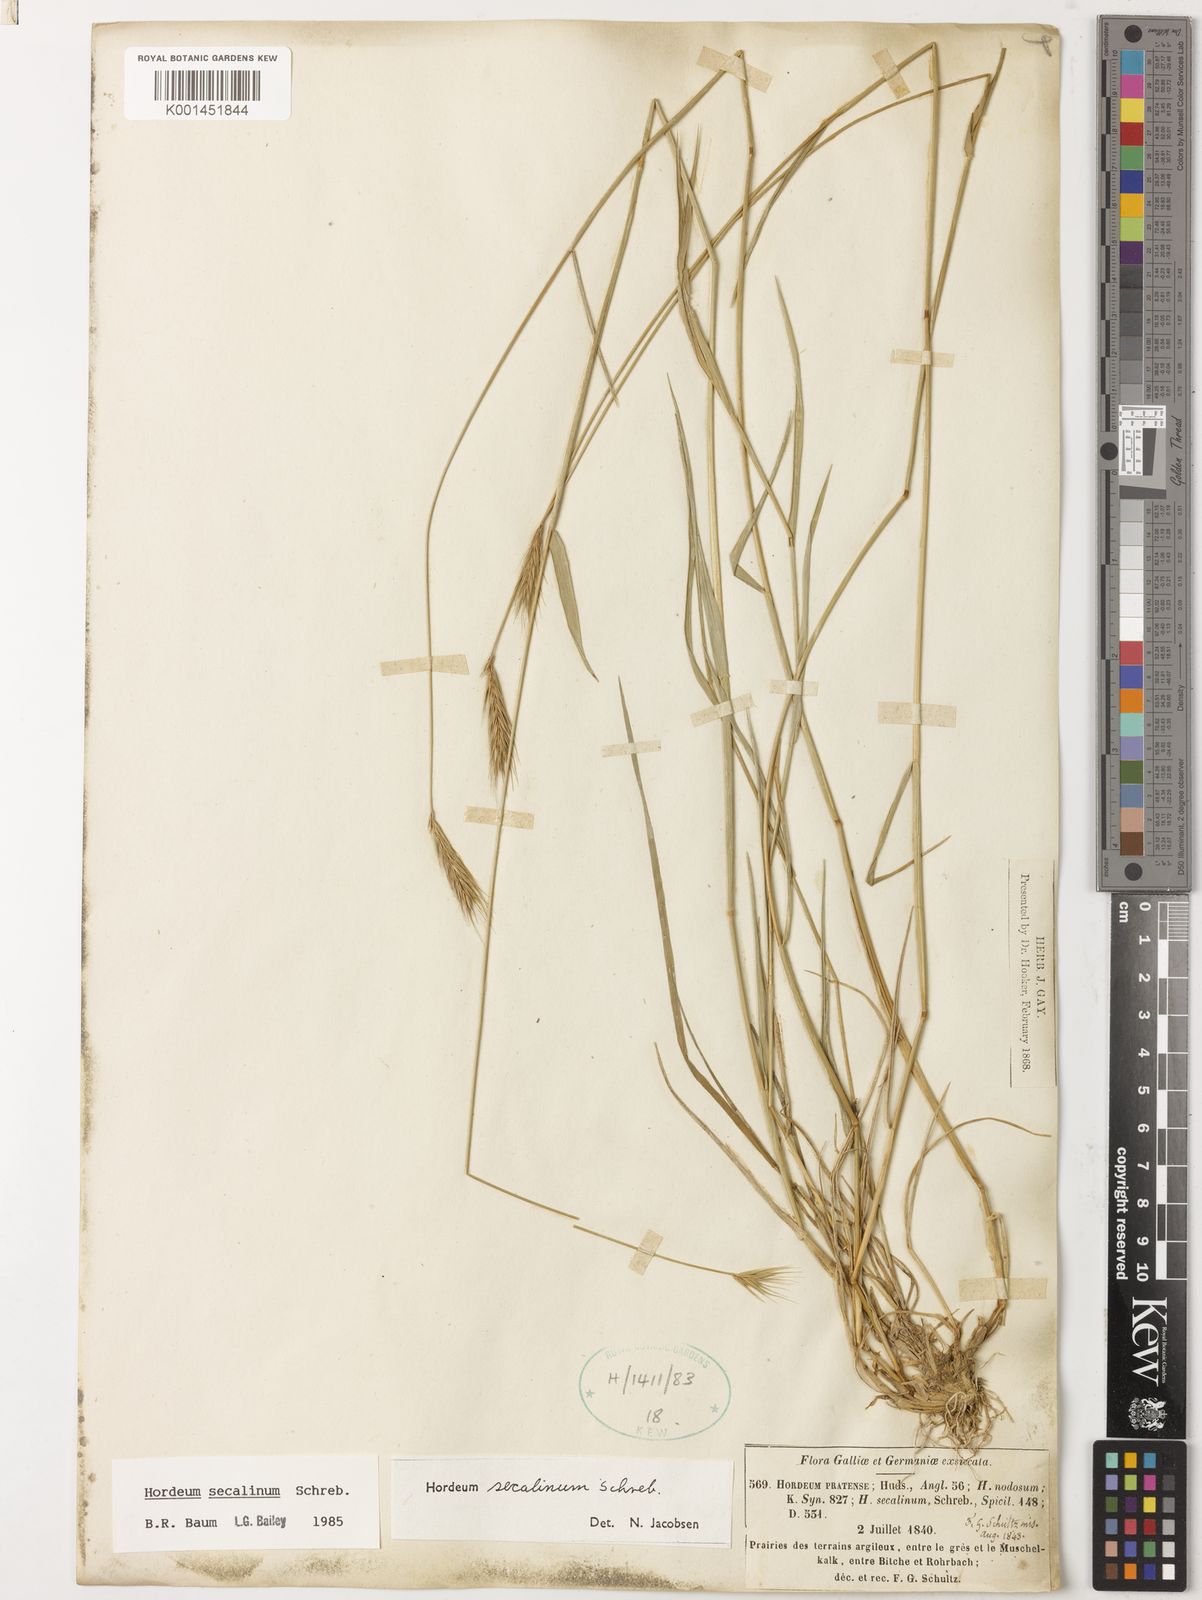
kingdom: Plantae
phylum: Tracheophyta
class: Liliopsida
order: Poales
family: Poaceae
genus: Hordeum
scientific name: Hordeum secalinum
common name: Meadow barley
